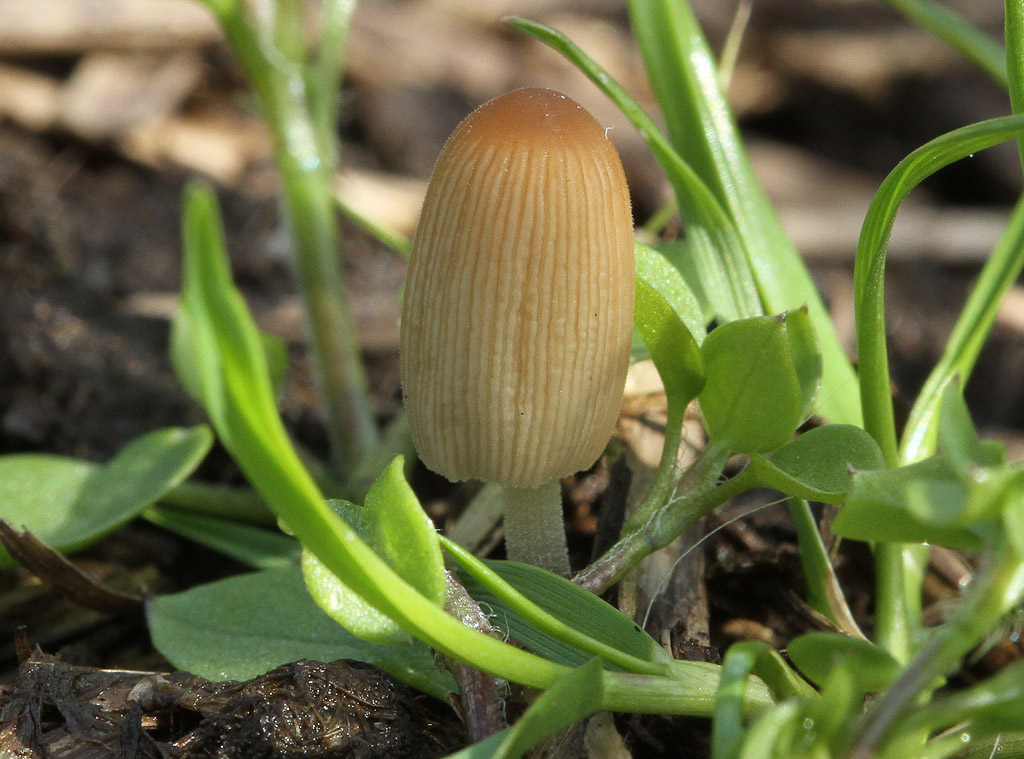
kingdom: Fungi
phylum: Basidiomycota
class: Agaricomycetes
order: Agaricales
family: Psathyrellaceae
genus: Tulosesus
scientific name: Tulosesus ephemerus
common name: morgen-blækhat
